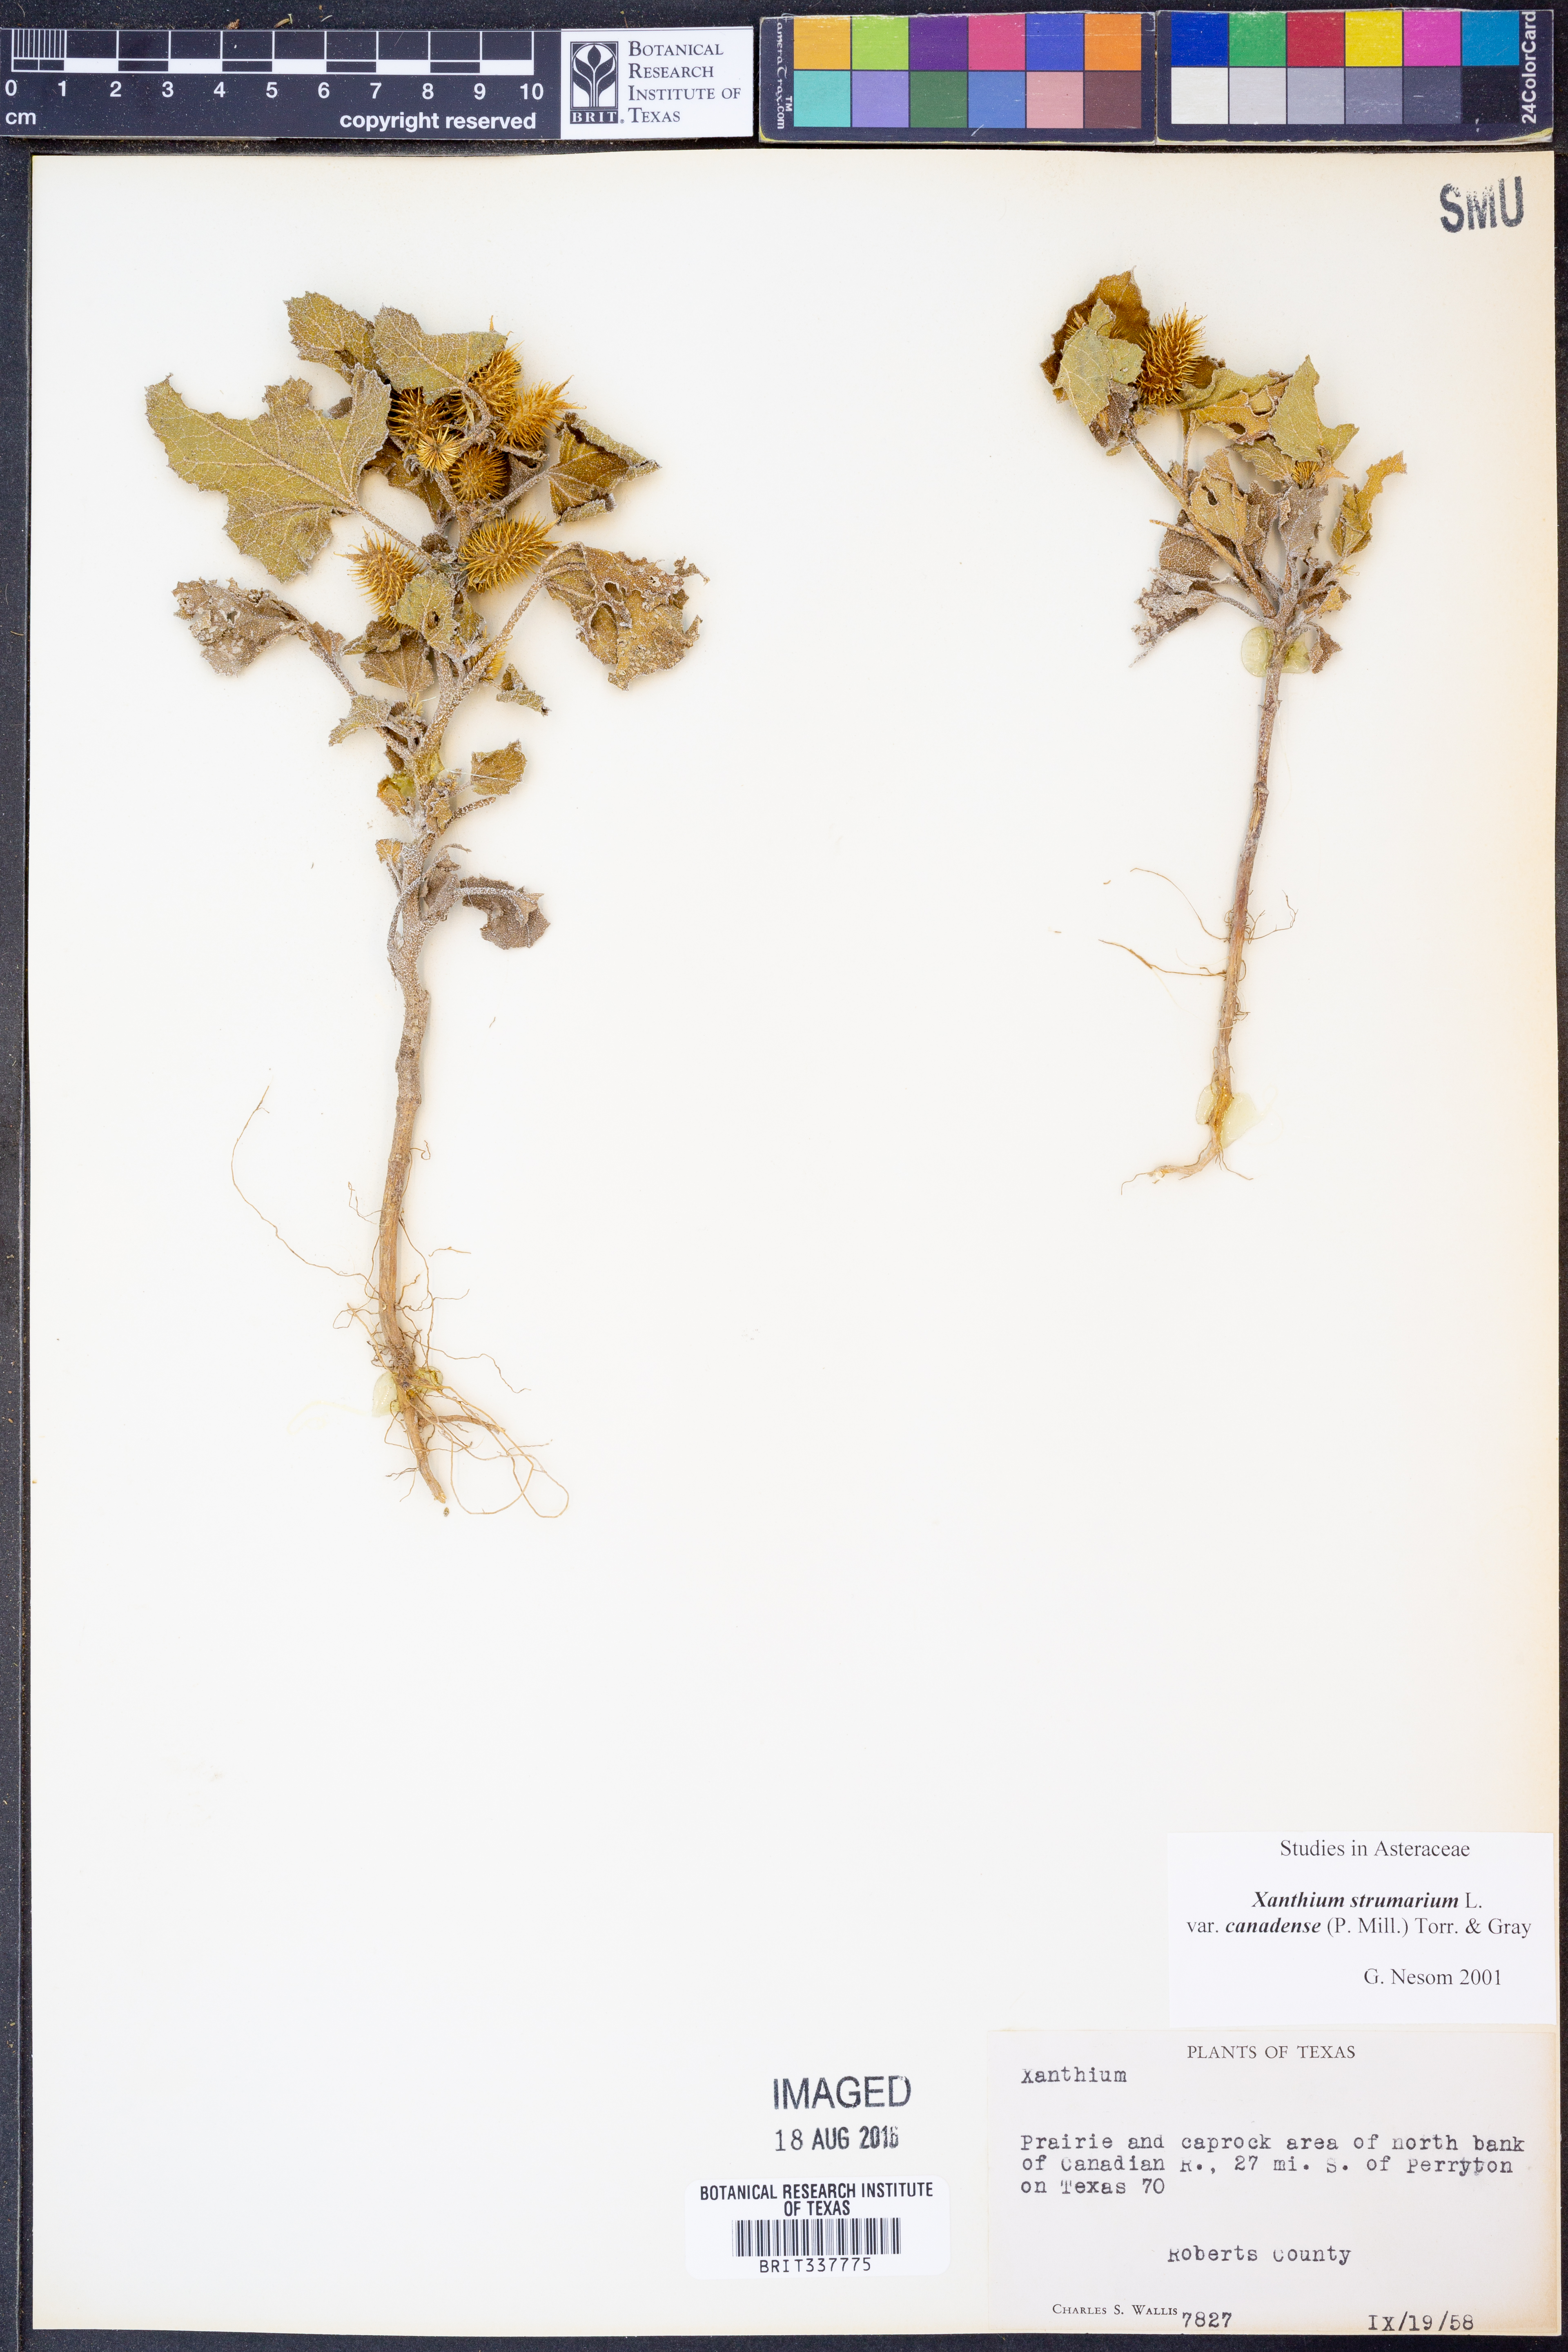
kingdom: Plantae
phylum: Tracheophyta
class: Magnoliopsida
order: Asterales
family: Asteraceae
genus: Xanthium
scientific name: Xanthium orientale
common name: Californian burr
